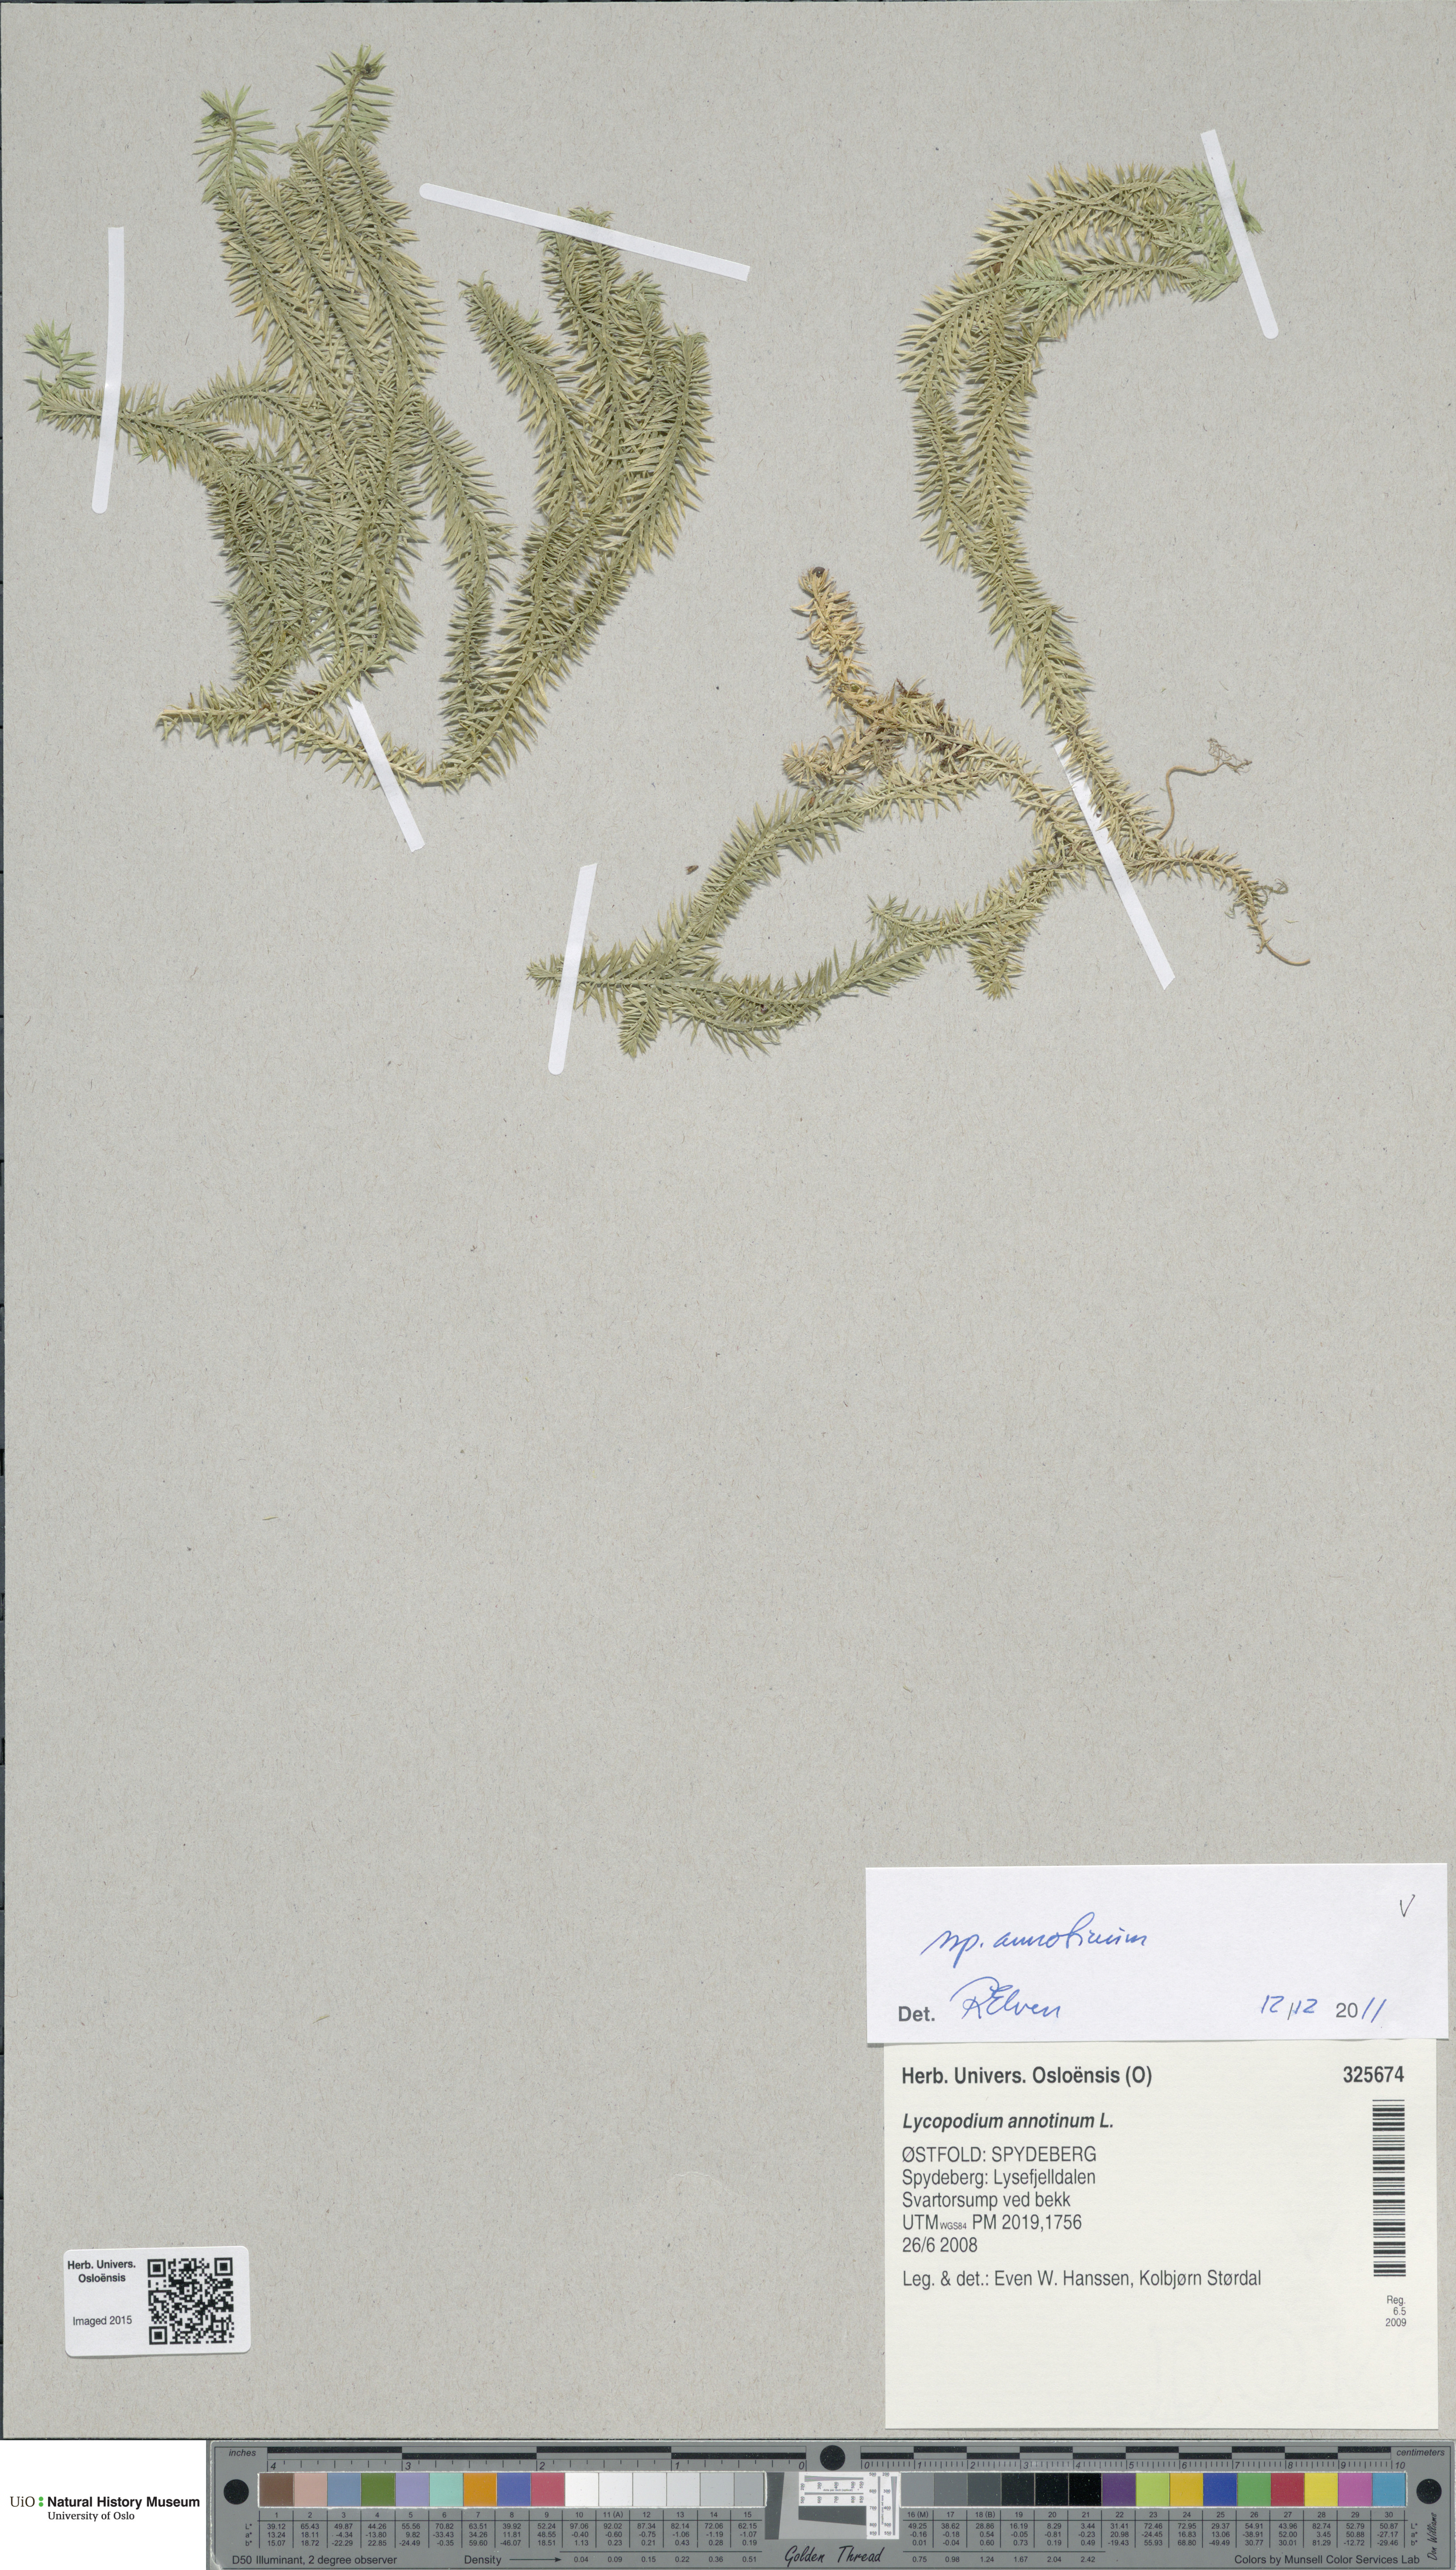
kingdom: Plantae
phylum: Tracheophyta
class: Lycopodiopsida
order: Lycopodiales
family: Lycopodiaceae
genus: Spinulum
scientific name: Spinulum annotinum
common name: Interrupted club-moss
